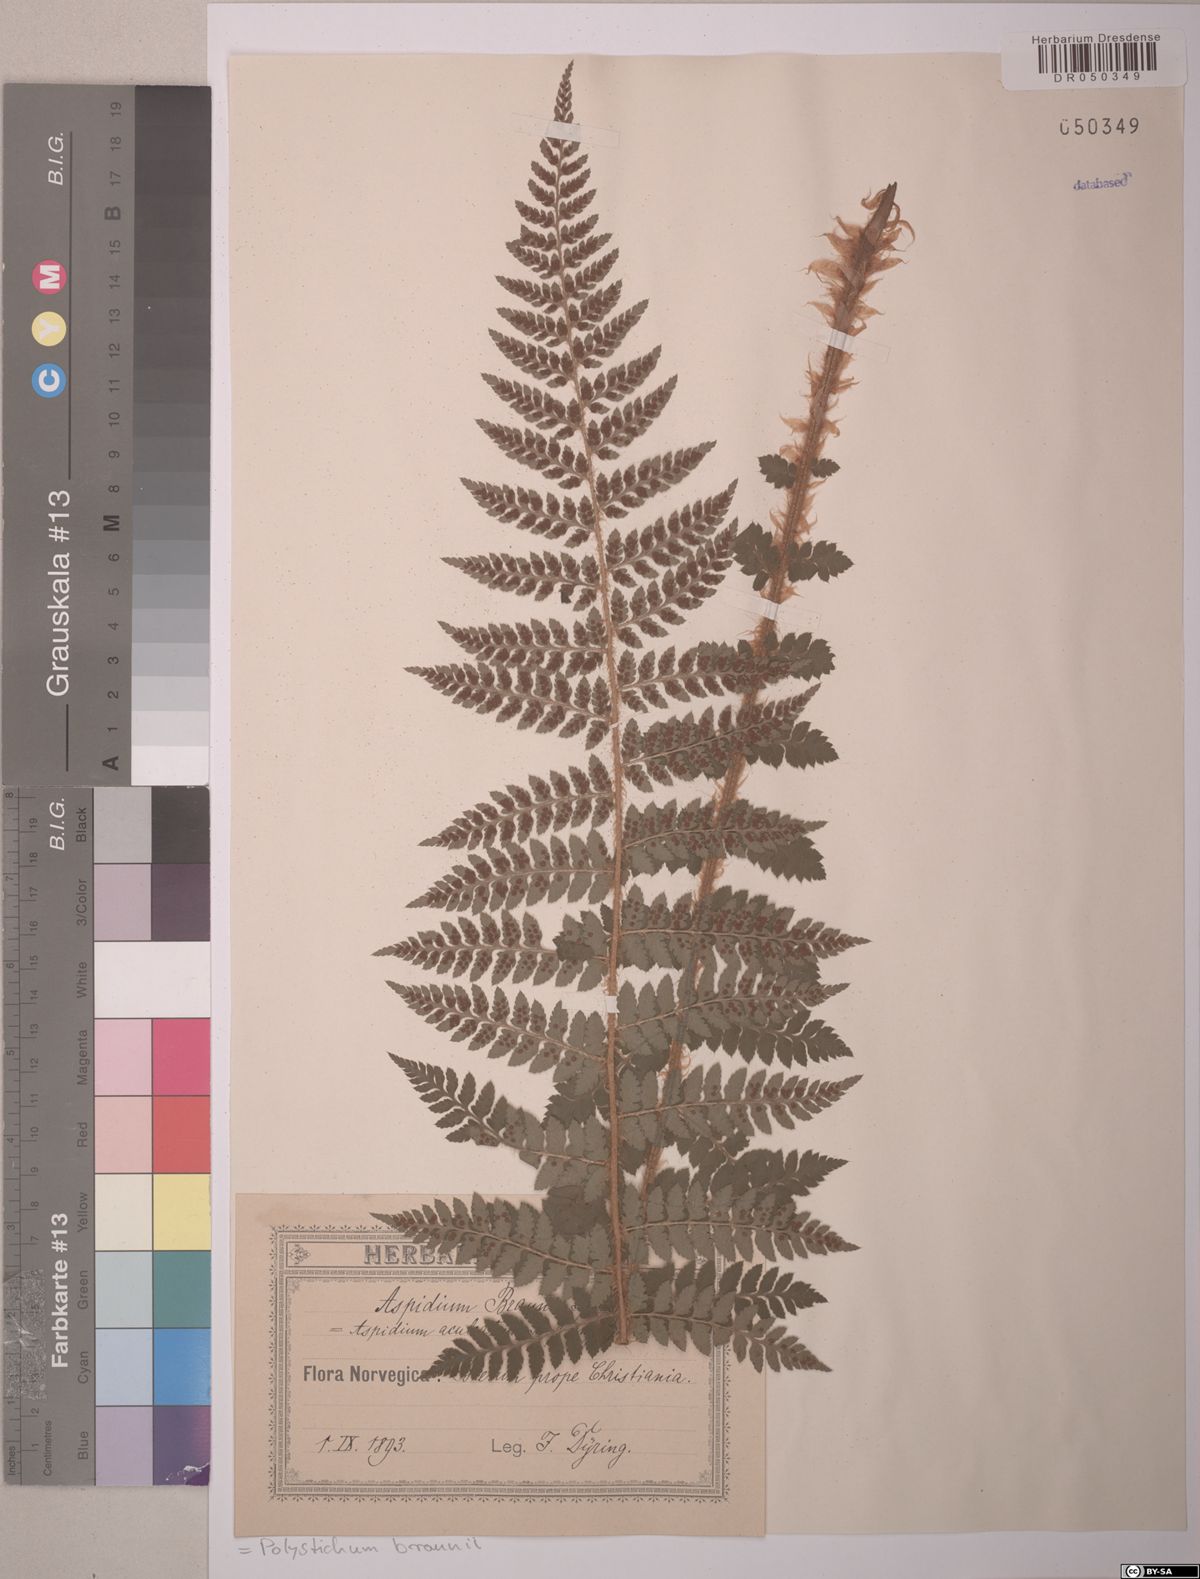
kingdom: Plantae
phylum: Tracheophyta
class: Polypodiopsida
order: Polypodiales
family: Dryopteridaceae
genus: Polystichum
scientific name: Polystichum braunii
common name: Braun's holly fern
